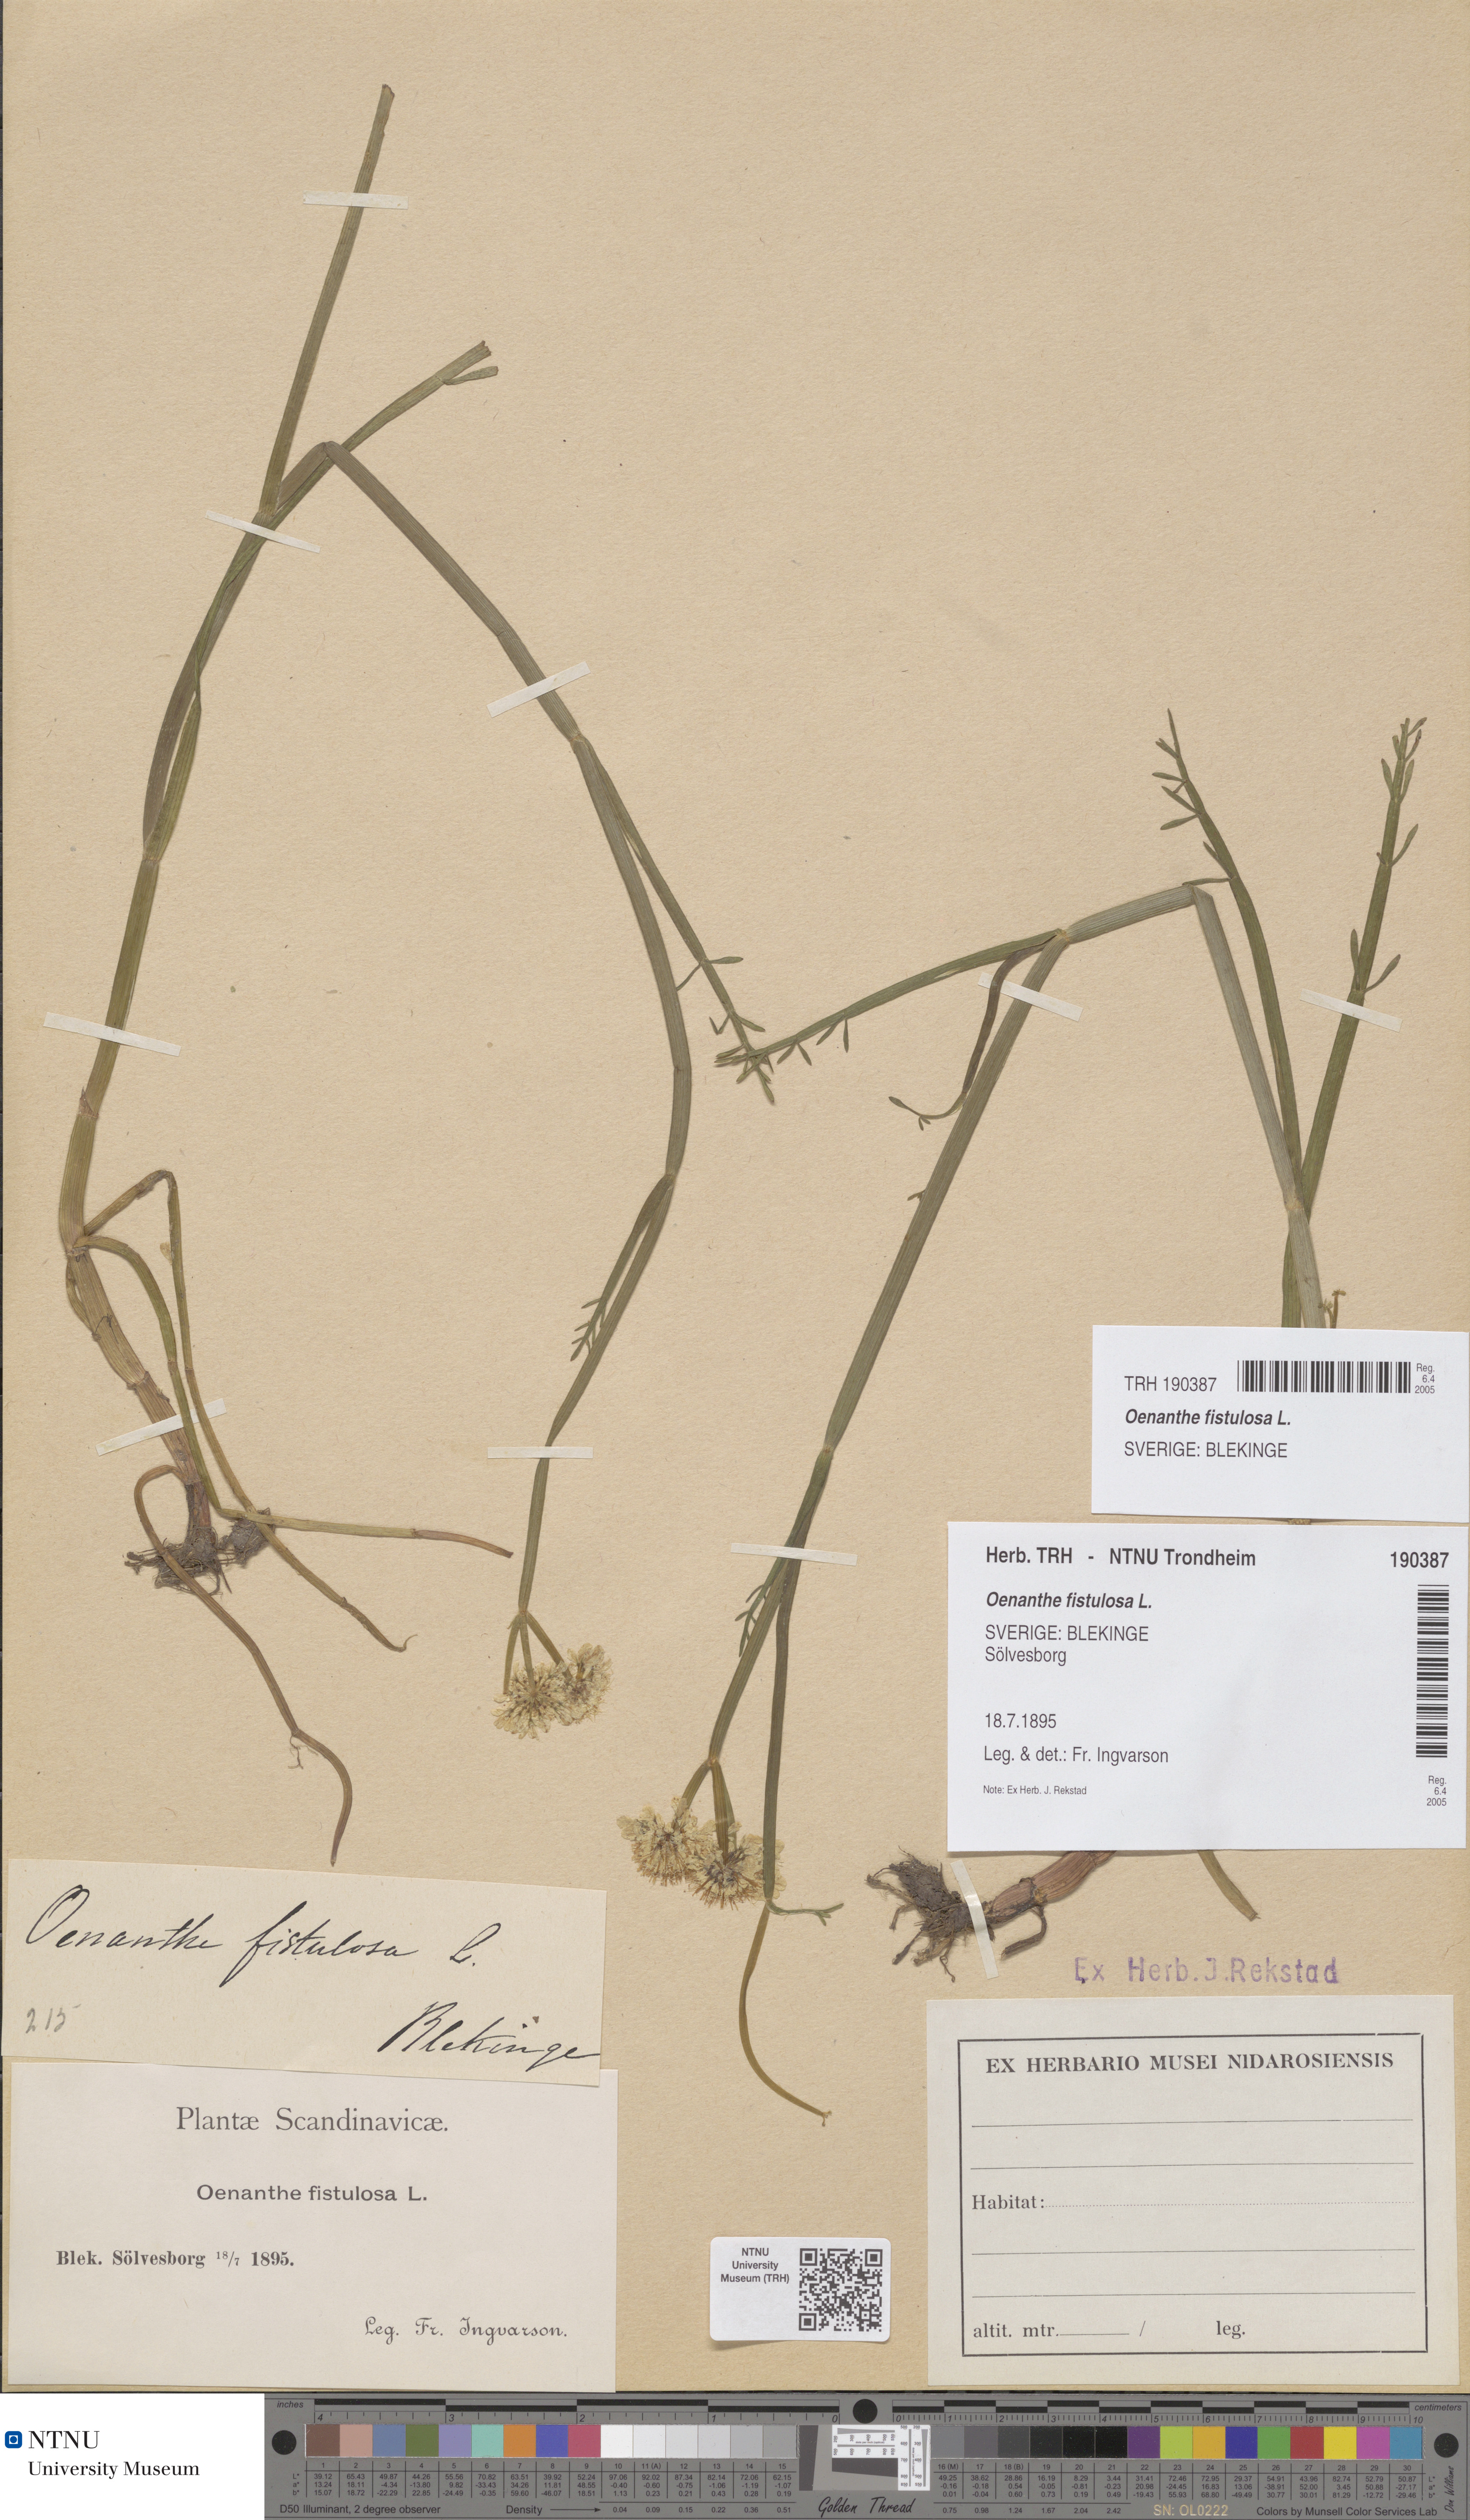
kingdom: Plantae
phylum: Tracheophyta
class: Magnoliopsida
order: Apiales
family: Apiaceae
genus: Oenanthe
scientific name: Oenanthe fistulosa
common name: Tubular water-dropwort
